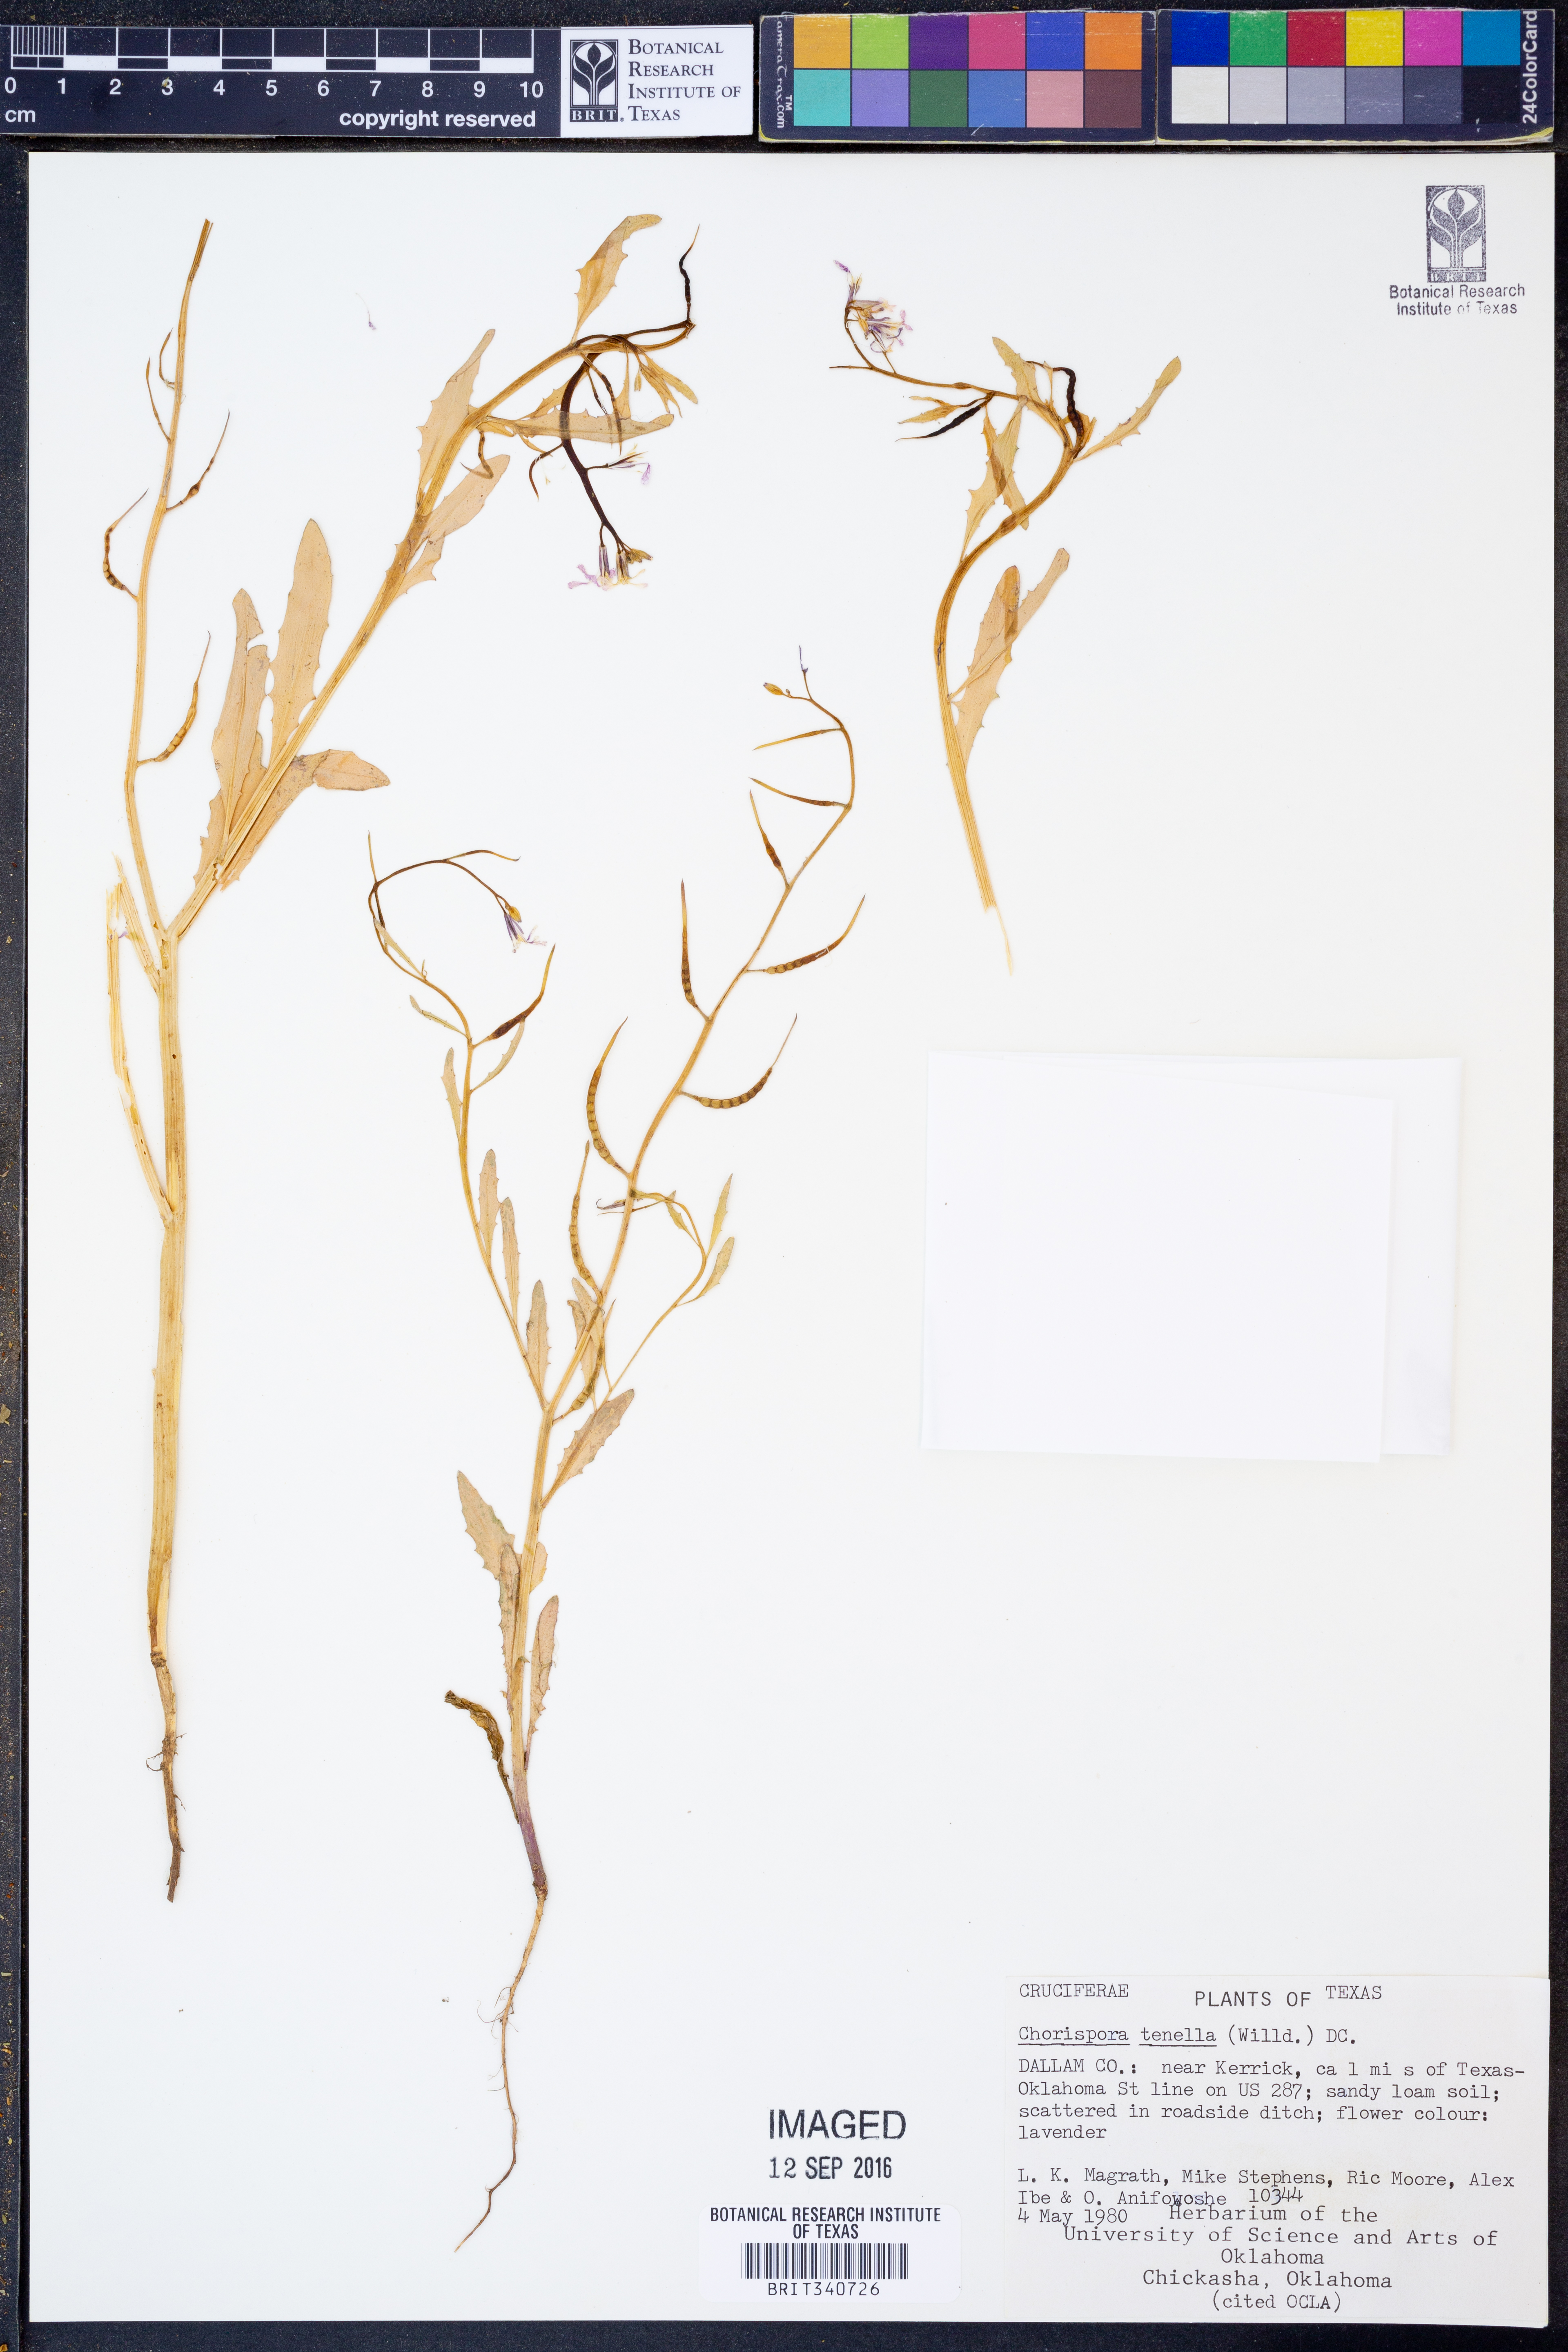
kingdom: Plantae
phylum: Tracheophyta
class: Magnoliopsida
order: Brassicales
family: Brassicaceae
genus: Chorispora
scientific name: Chorispora tenella
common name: Crossflower
